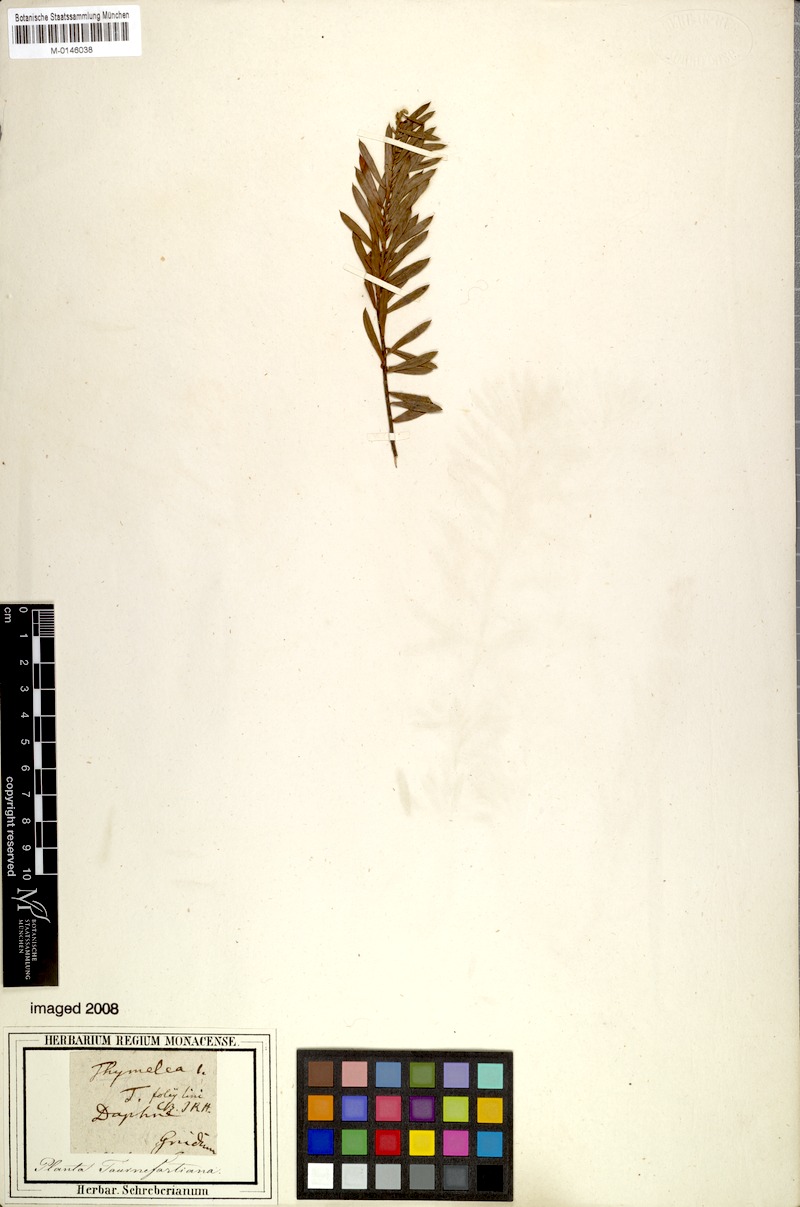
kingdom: Plantae
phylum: Tracheophyta
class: Magnoliopsida
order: Malvales
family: Thymelaeaceae
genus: Daphne
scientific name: Daphne gnidium
